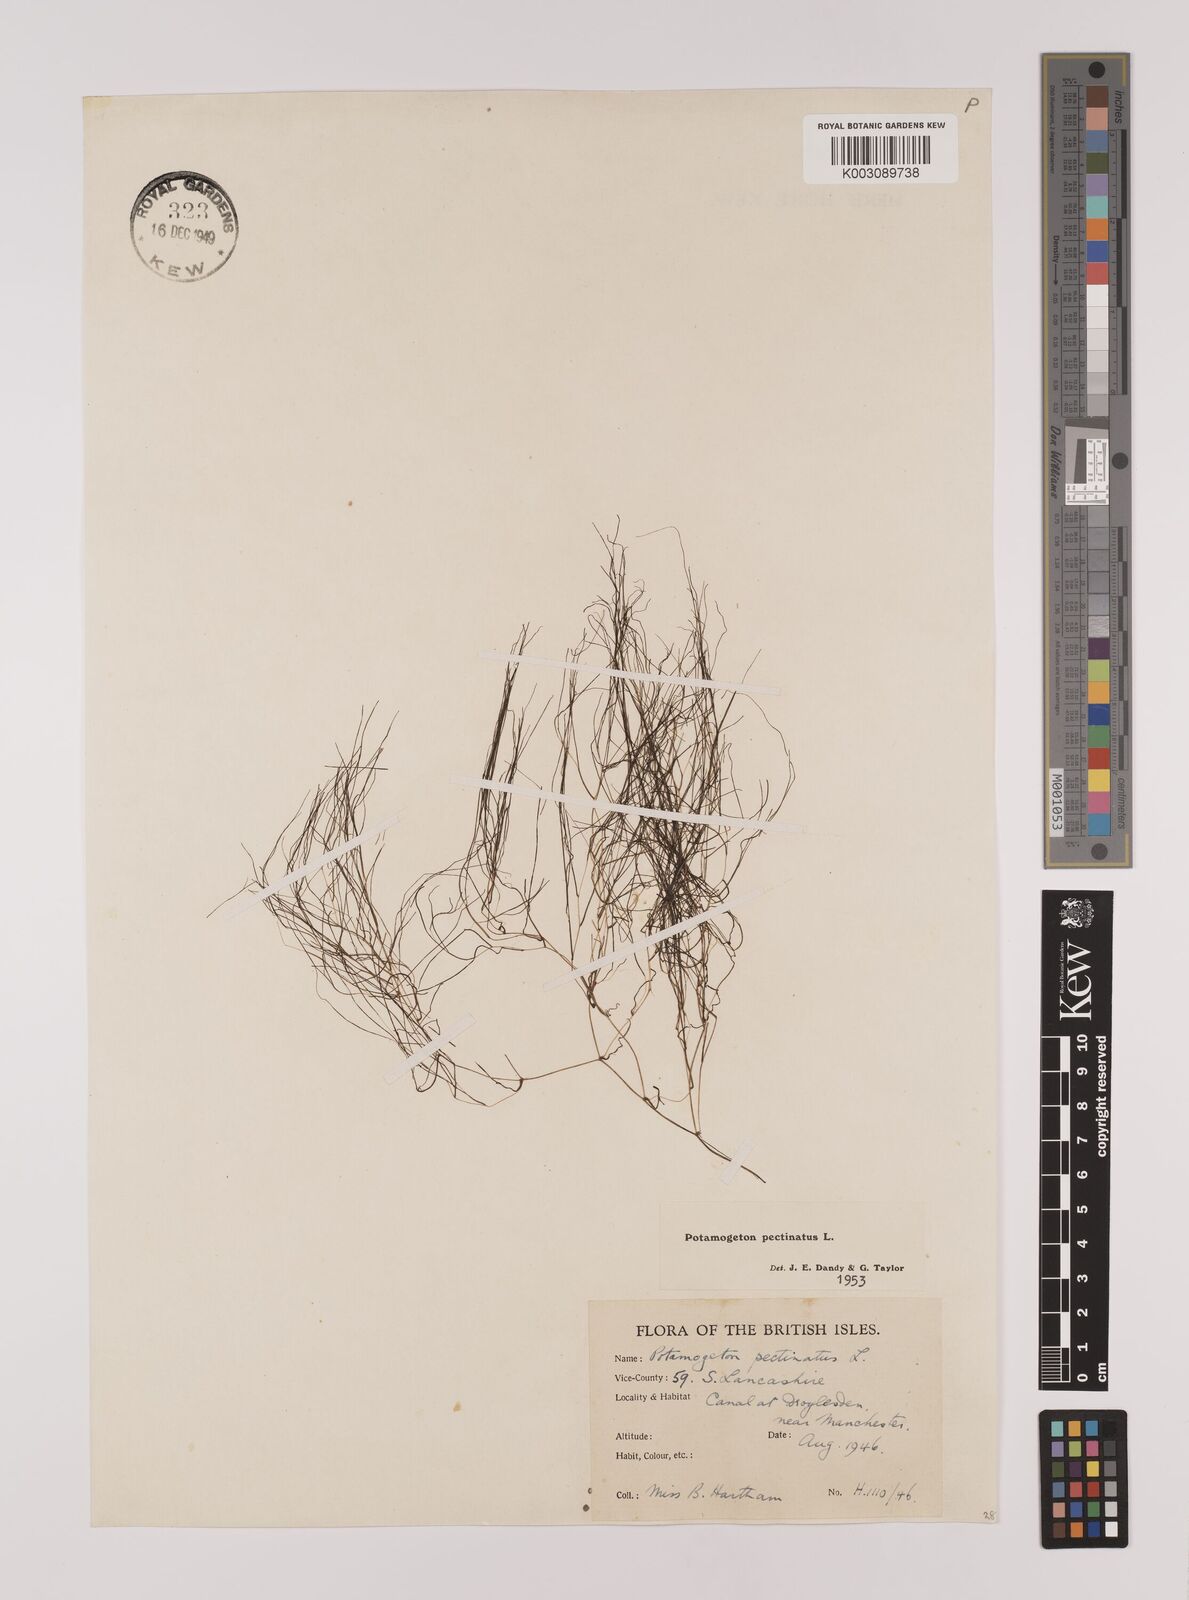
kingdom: Plantae
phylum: Tracheophyta
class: Liliopsida
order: Alismatales
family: Potamogetonaceae
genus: Stuckenia
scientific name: Stuckenia pectinata
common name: Sago pondweed
